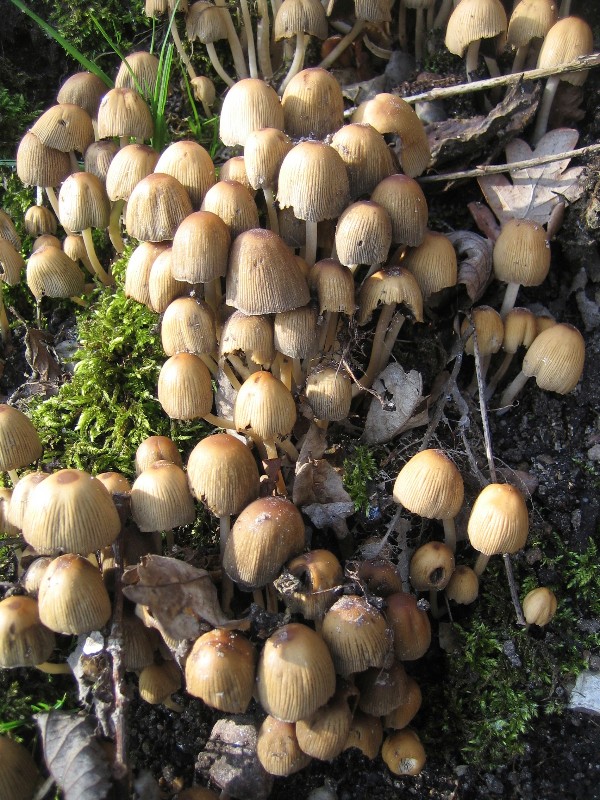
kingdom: Fungi
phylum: Basidiomycota
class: Agaricomycetes
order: Agaricales
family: Psathyrellaceae
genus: Coprinellus
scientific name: Coprinellus micaceus
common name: glimmer-blækhat
